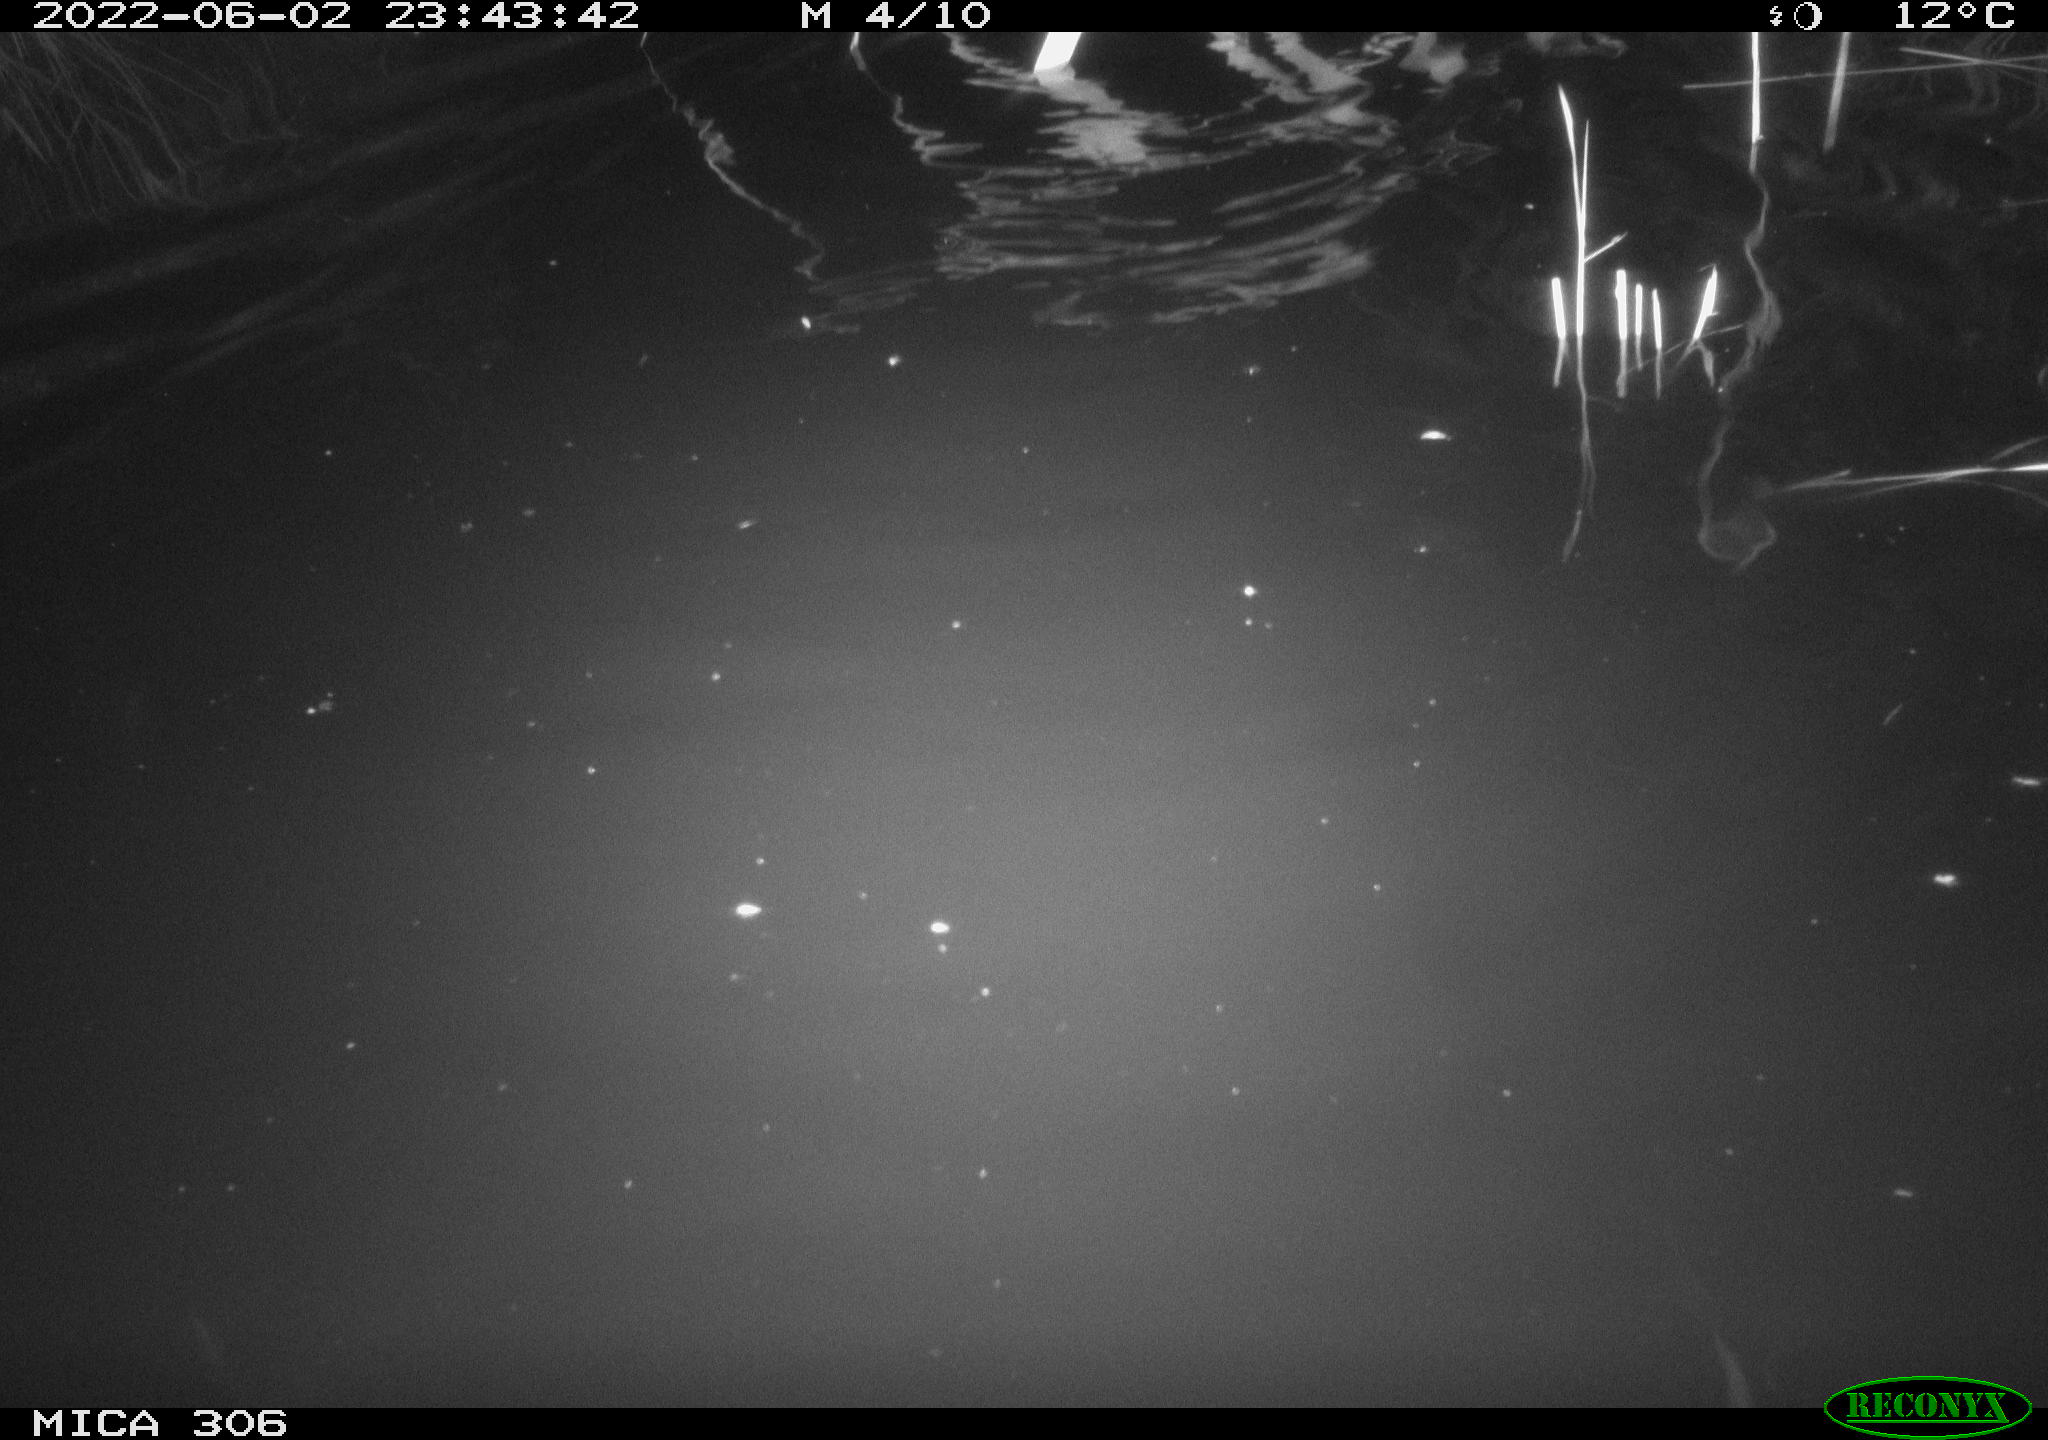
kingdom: Animalia
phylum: Chordata
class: Mammalia
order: Rodentia
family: Cricetidae
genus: Ondatra
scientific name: Ondatra zibethicus
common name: Muskrat
